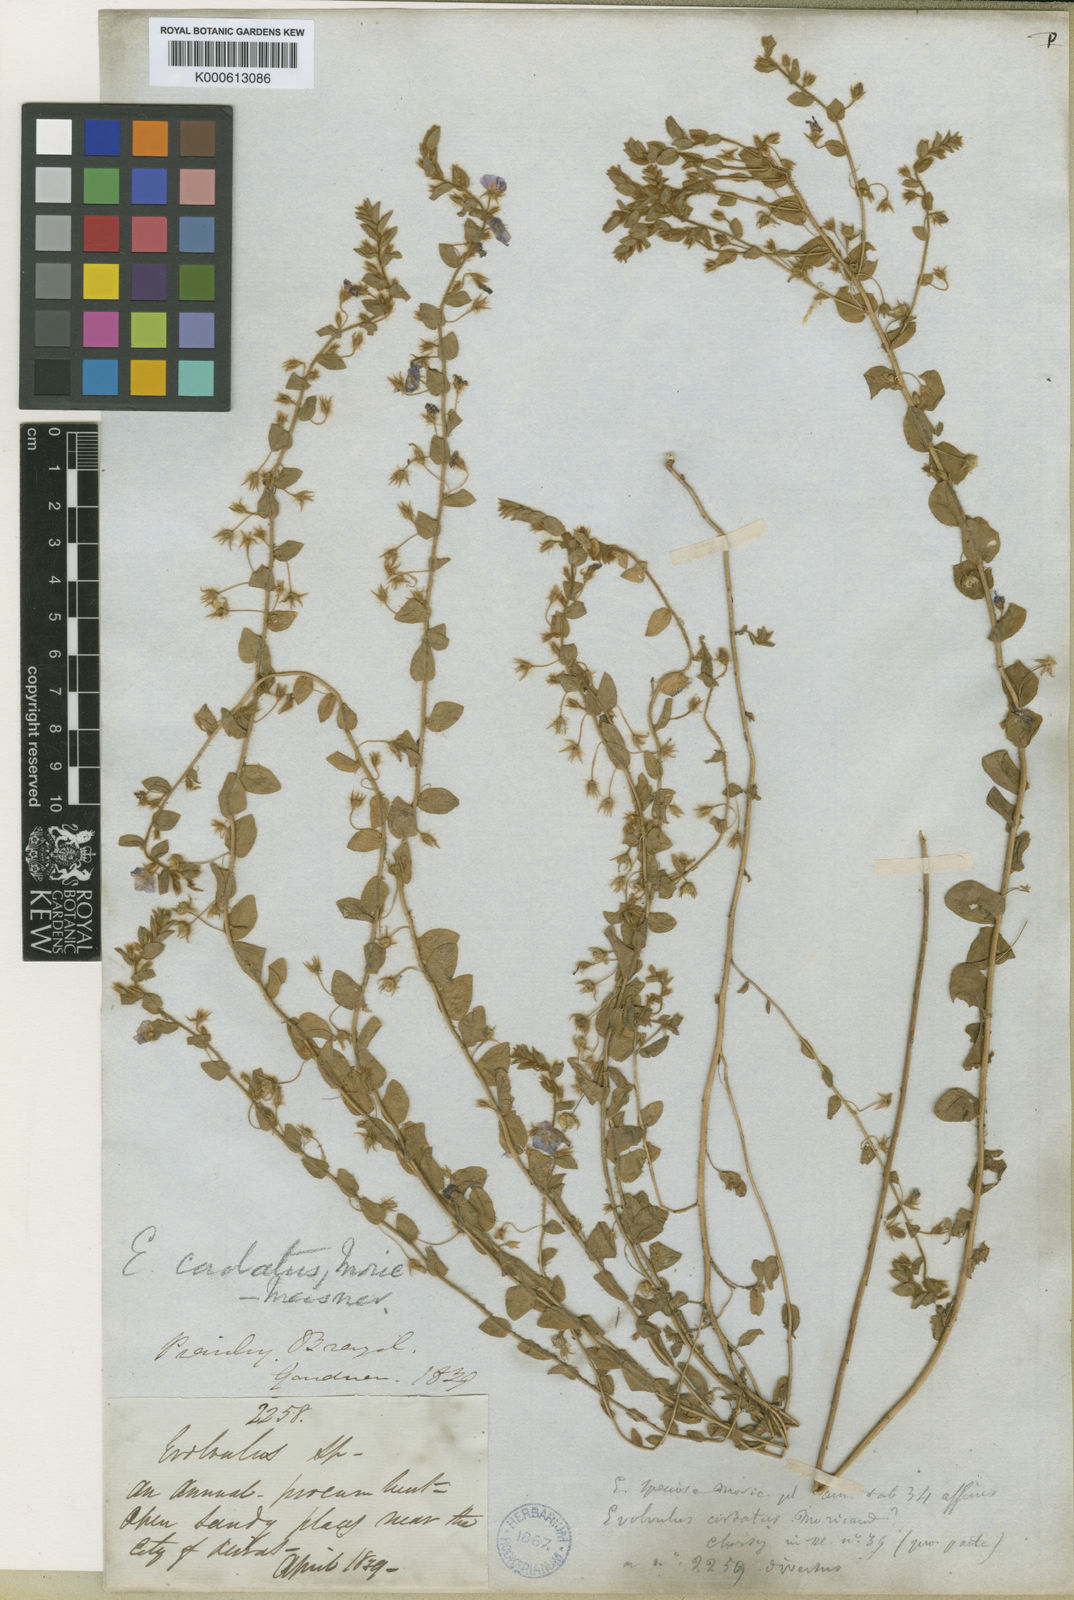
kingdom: Plantae
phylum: Tracheophyta
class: Magnoliopsida
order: Solanales
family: Convolvulaceae
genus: Evolvulus
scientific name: Evolvulus cordatus
